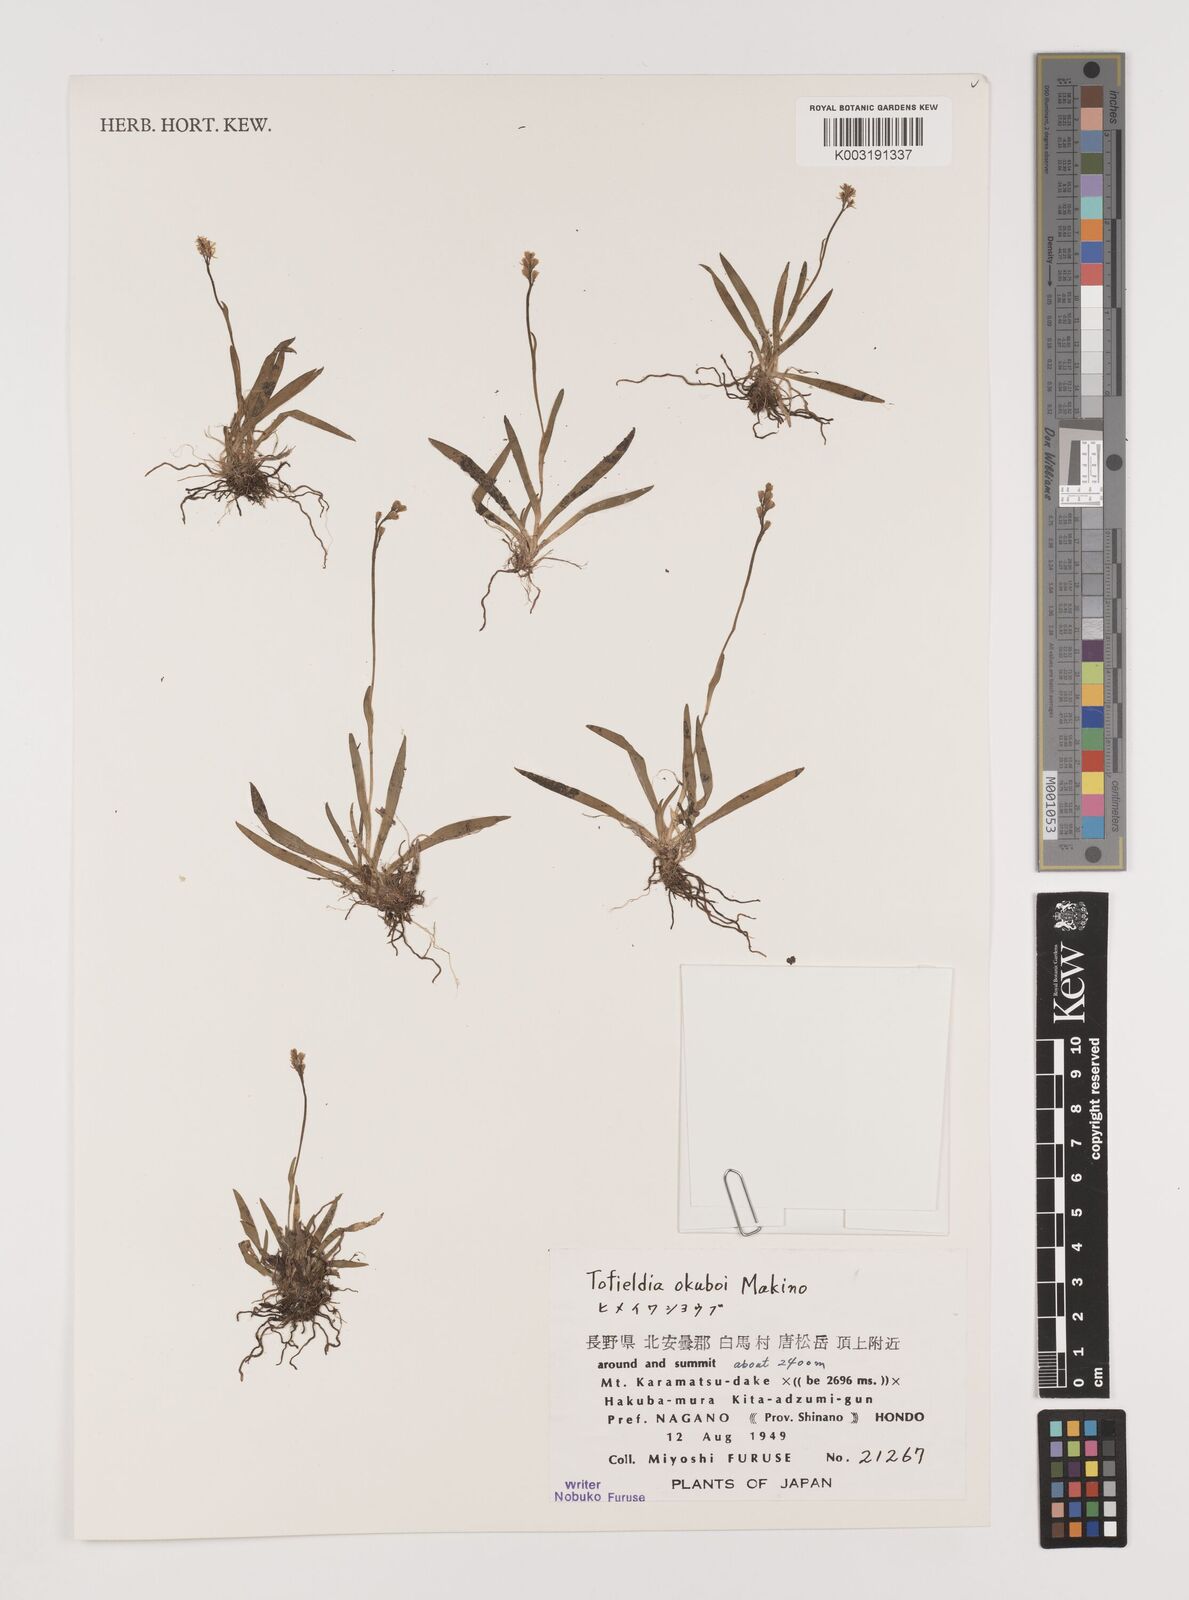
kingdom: Plantae
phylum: Tracheophyta
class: Liliopsida
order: Alismatales
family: Tofieldiaceae
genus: Tofieldia
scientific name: Tofieldia okuboi
